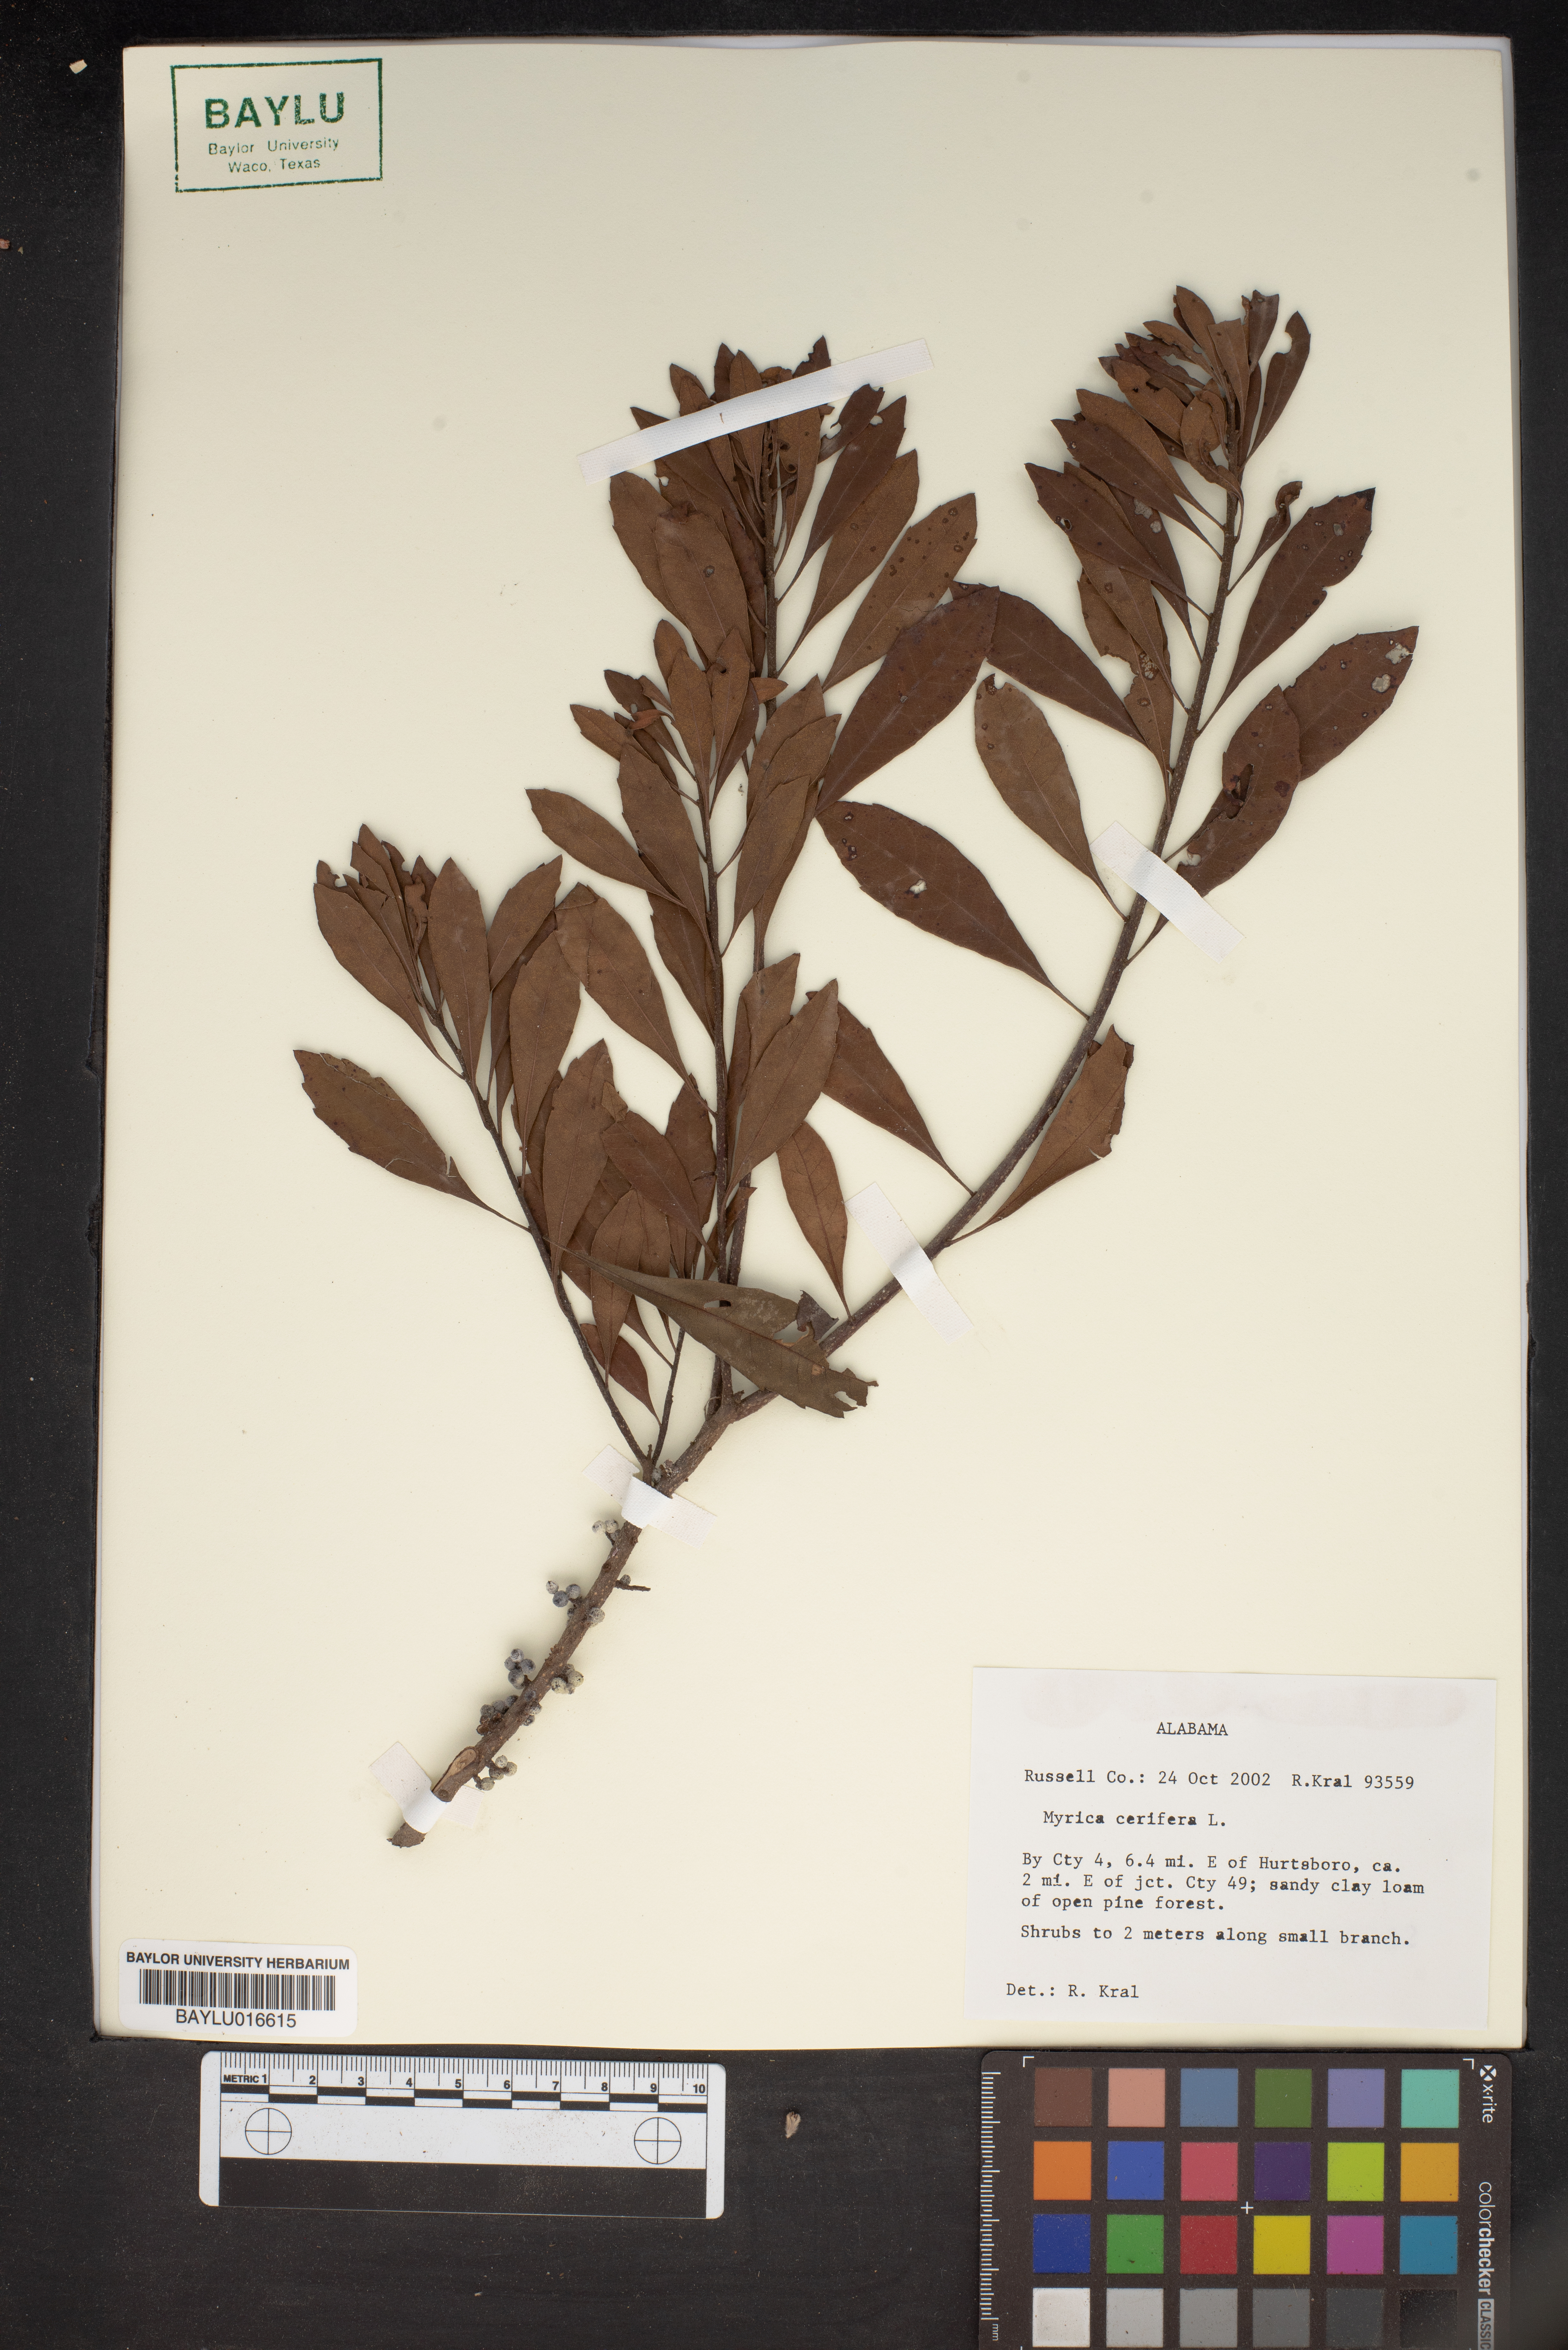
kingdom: Plantae
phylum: Tracheophyta
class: Magnoliopsida
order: Fagales
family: Myricaceae
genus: Morella
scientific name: Morella cerifera
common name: Wax myrtle
